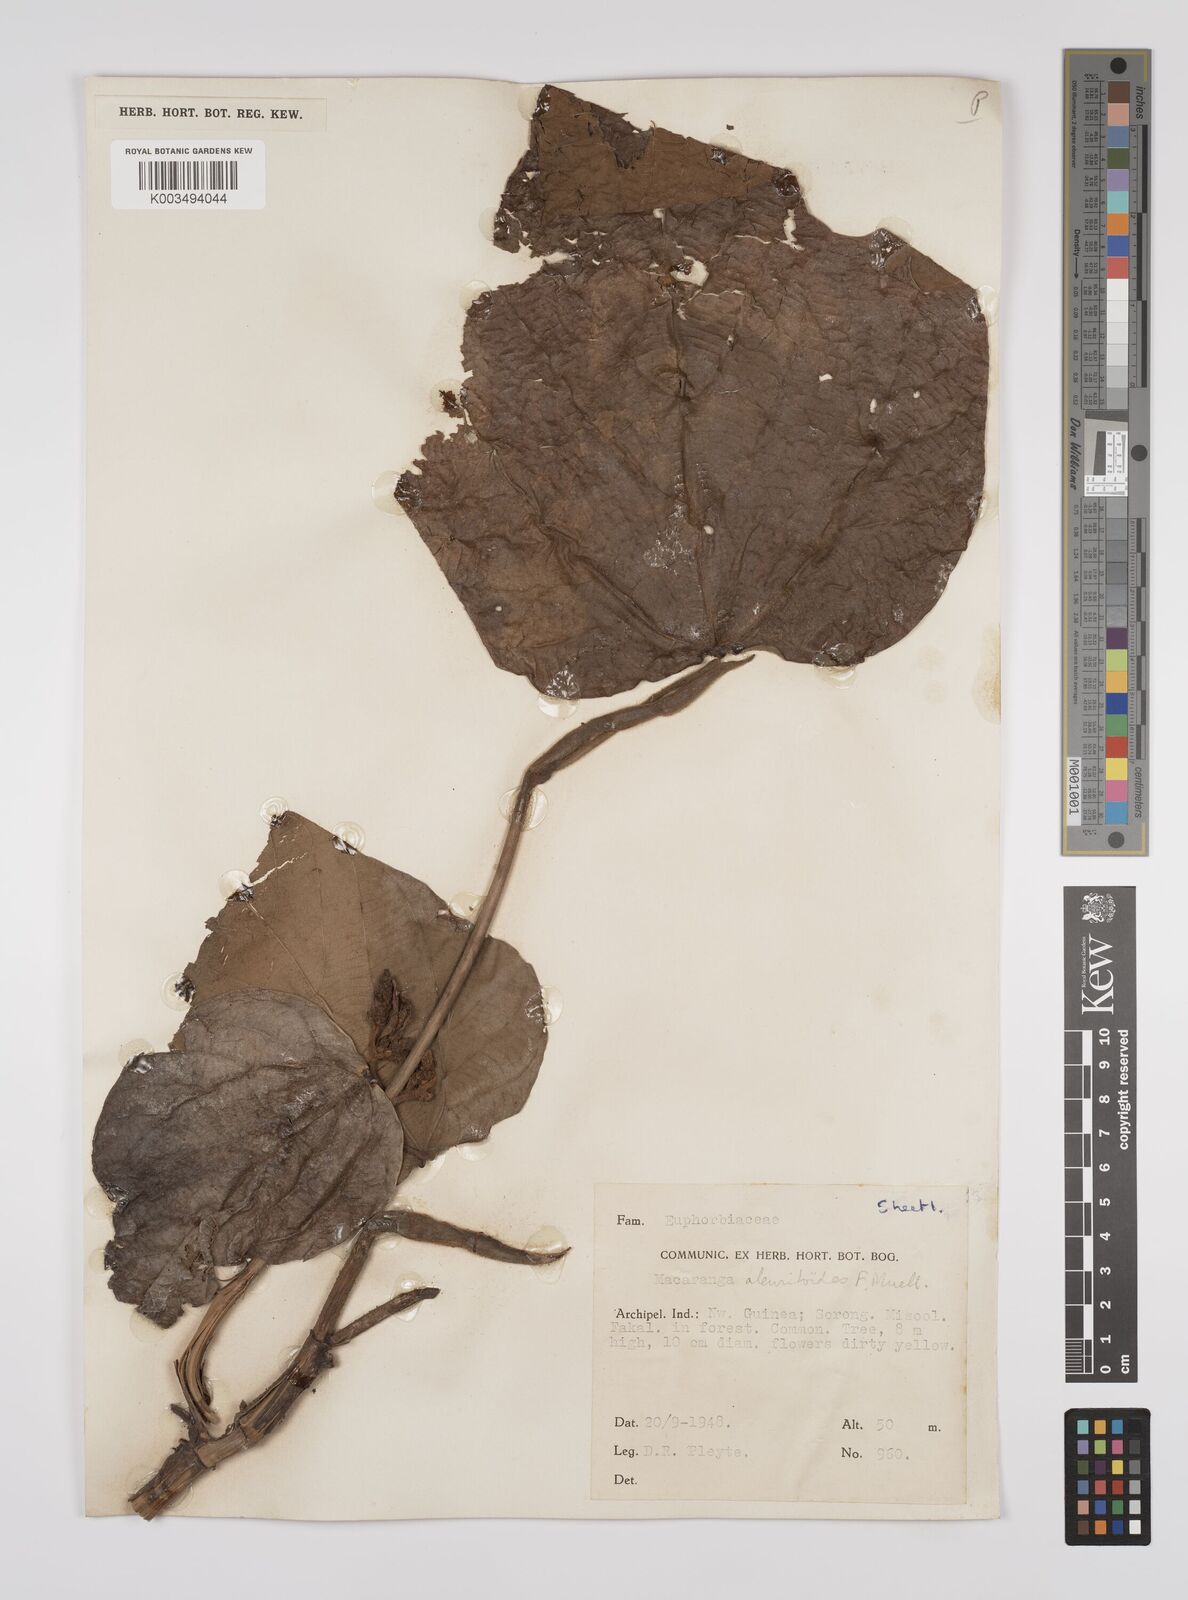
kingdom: Plantae
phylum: Tracheophyta
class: Magnoliopsida
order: Malpighiales
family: Euphorbiaceae
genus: Macaranga
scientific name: Macaranga aleuritoides
